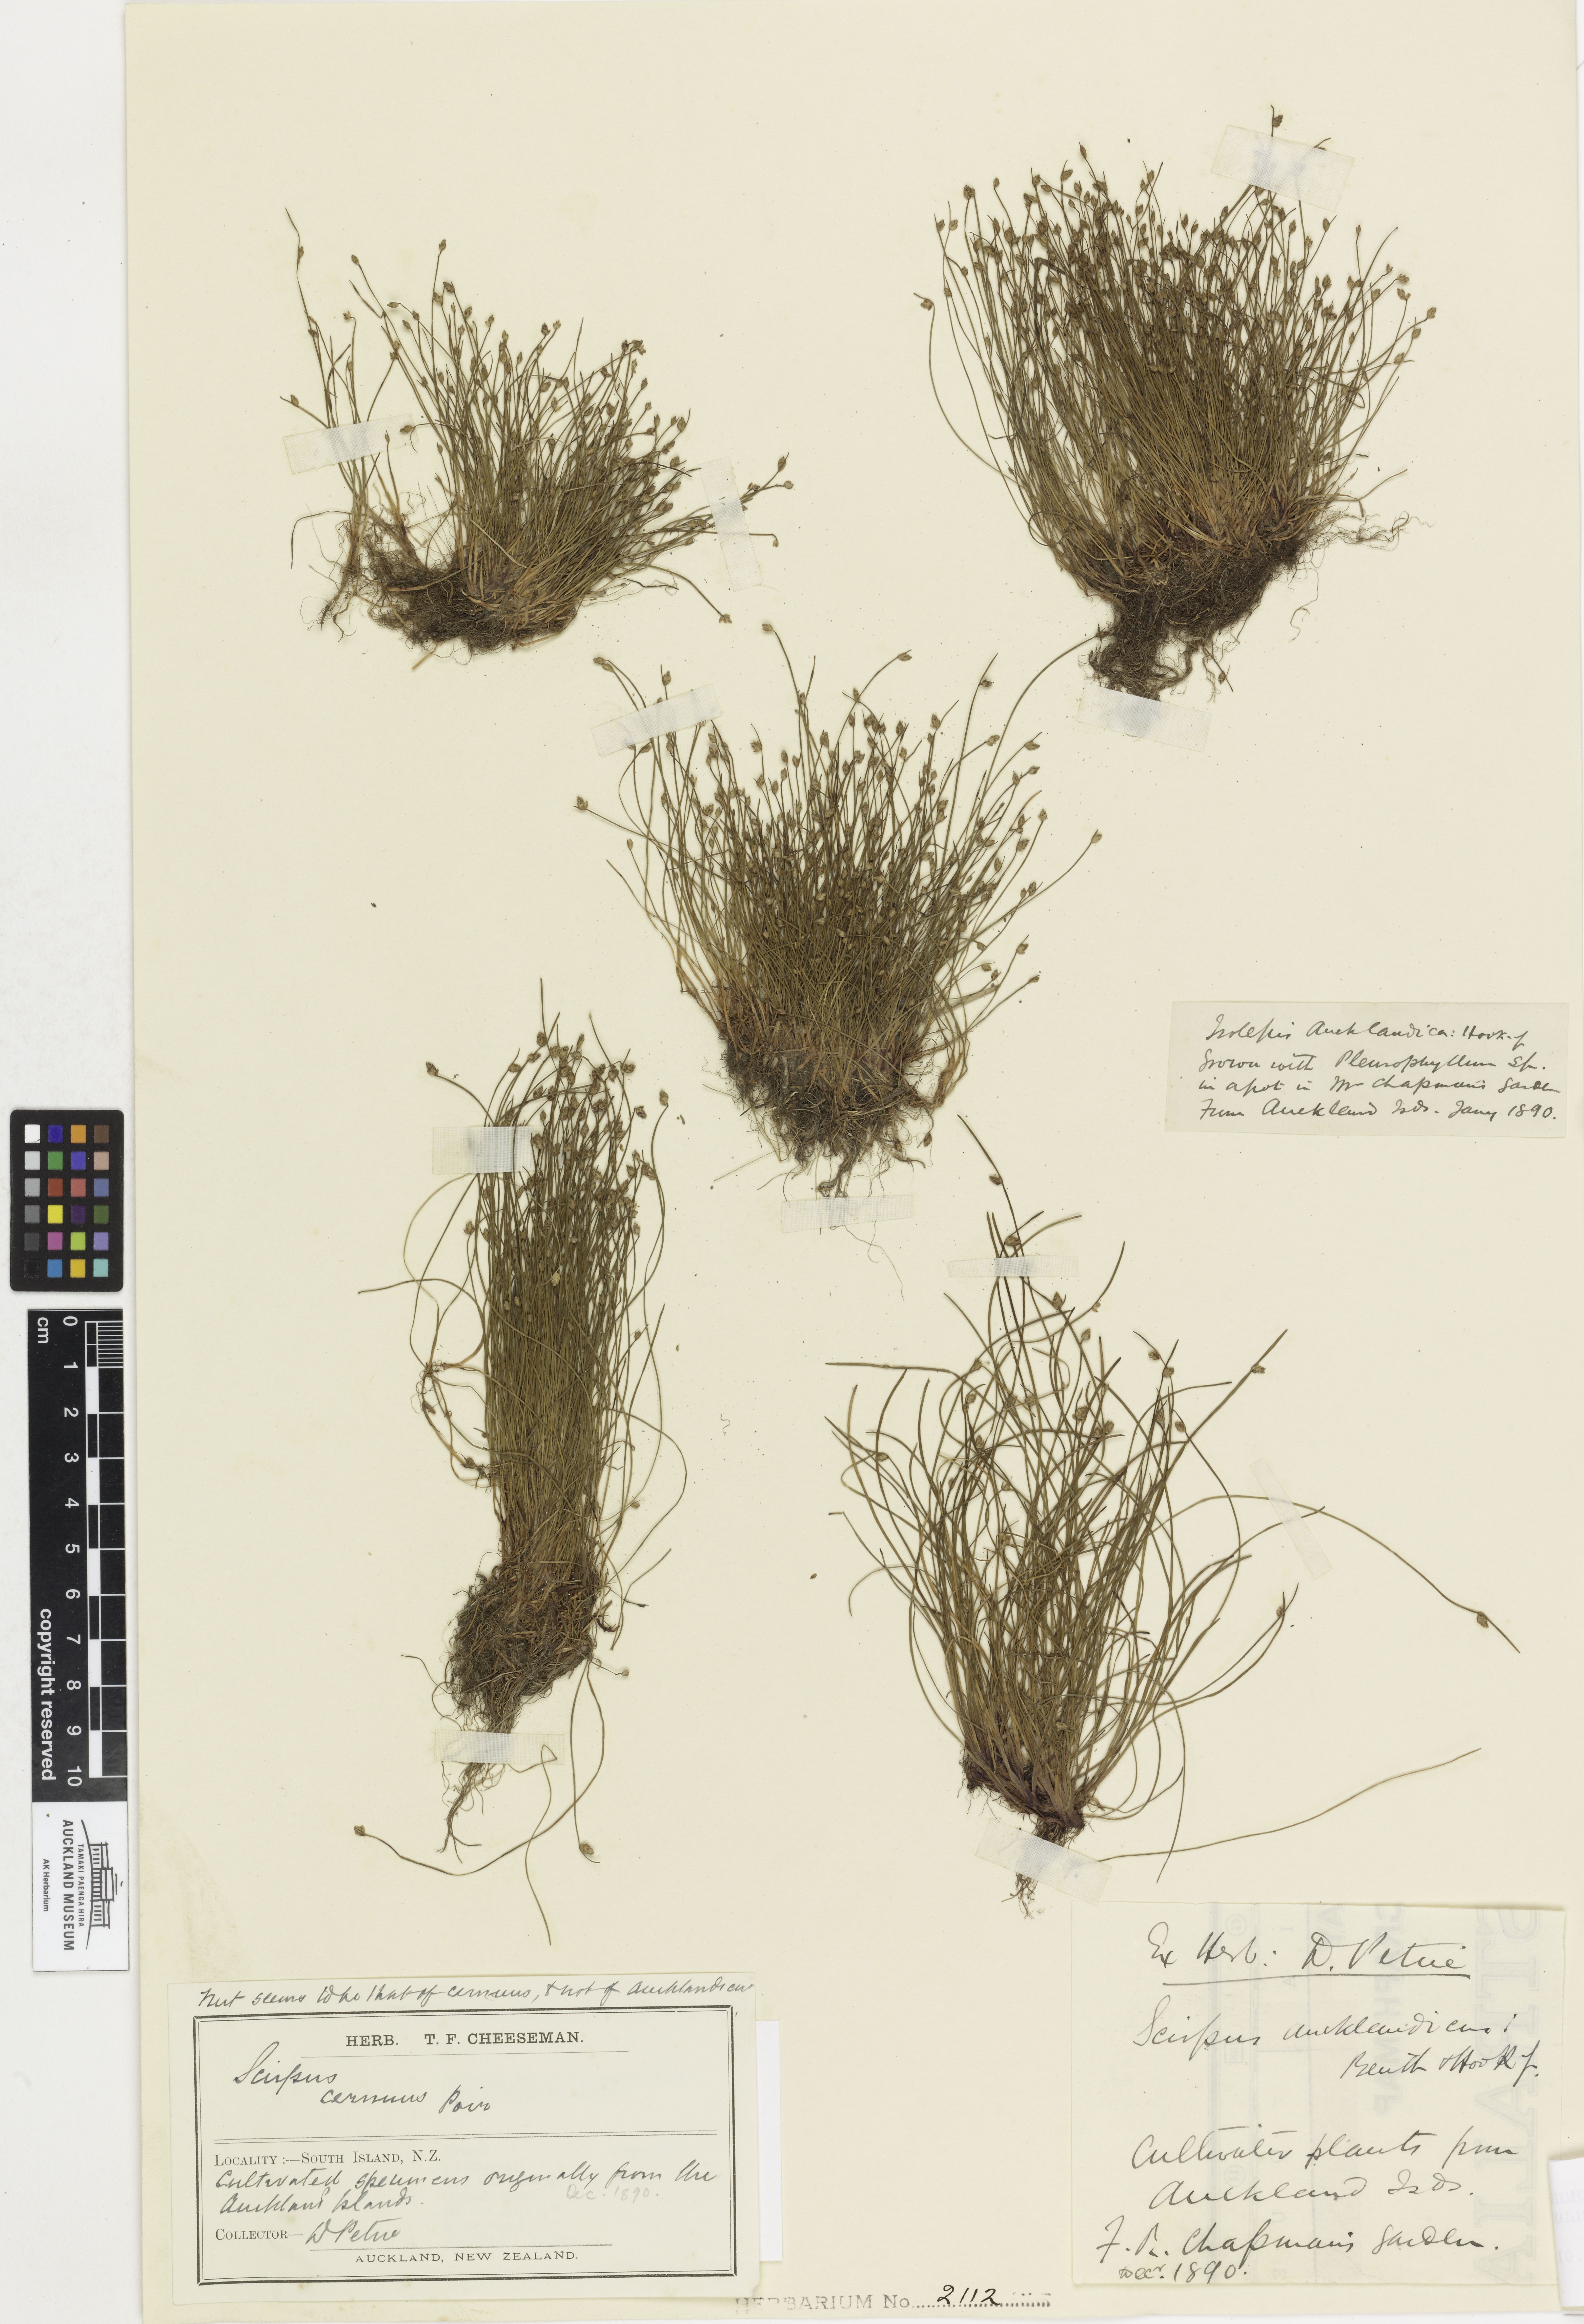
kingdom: Plantae
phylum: Tracheophyta
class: Liliopsida
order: Poales
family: Cyperaceae
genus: Isolepis
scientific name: Isolepis cernua
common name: Slender club-rush
